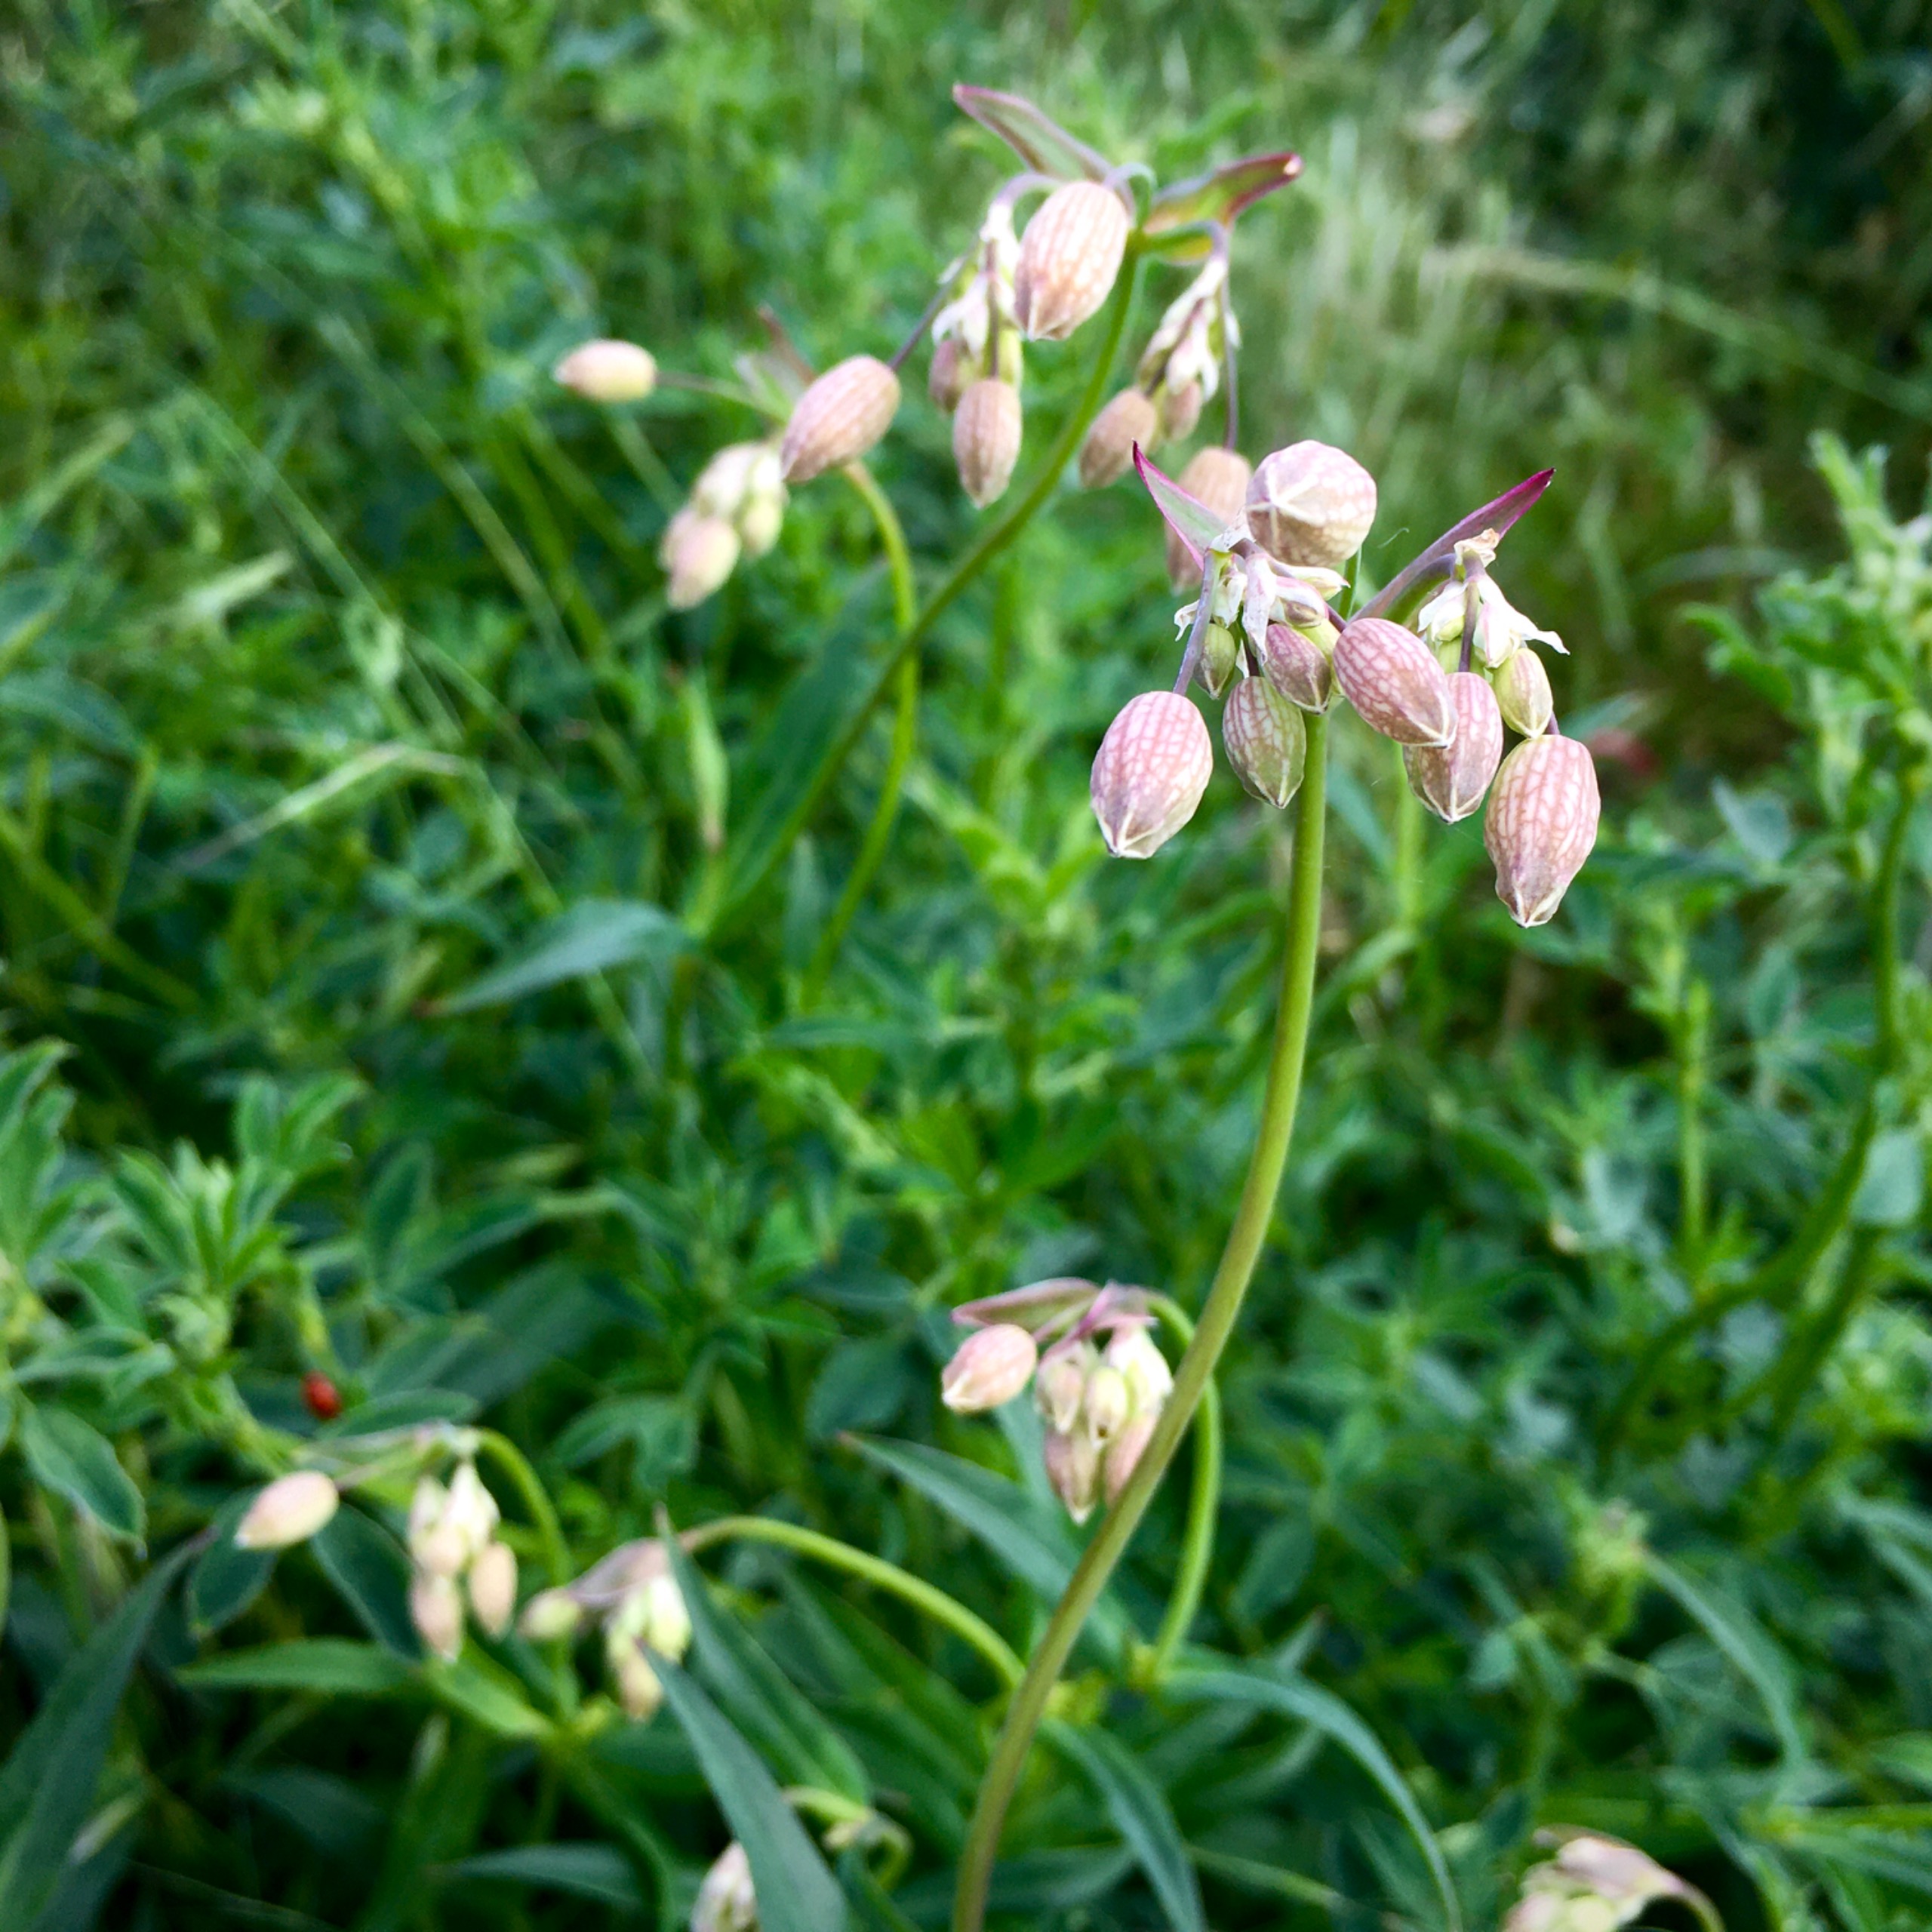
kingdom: Plantae
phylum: Tracheophyta
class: Magnoliopsida
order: Caryophyllales
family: Caryophyllaceae
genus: Silene
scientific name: Silene vulgaris
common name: Blæresmælde
